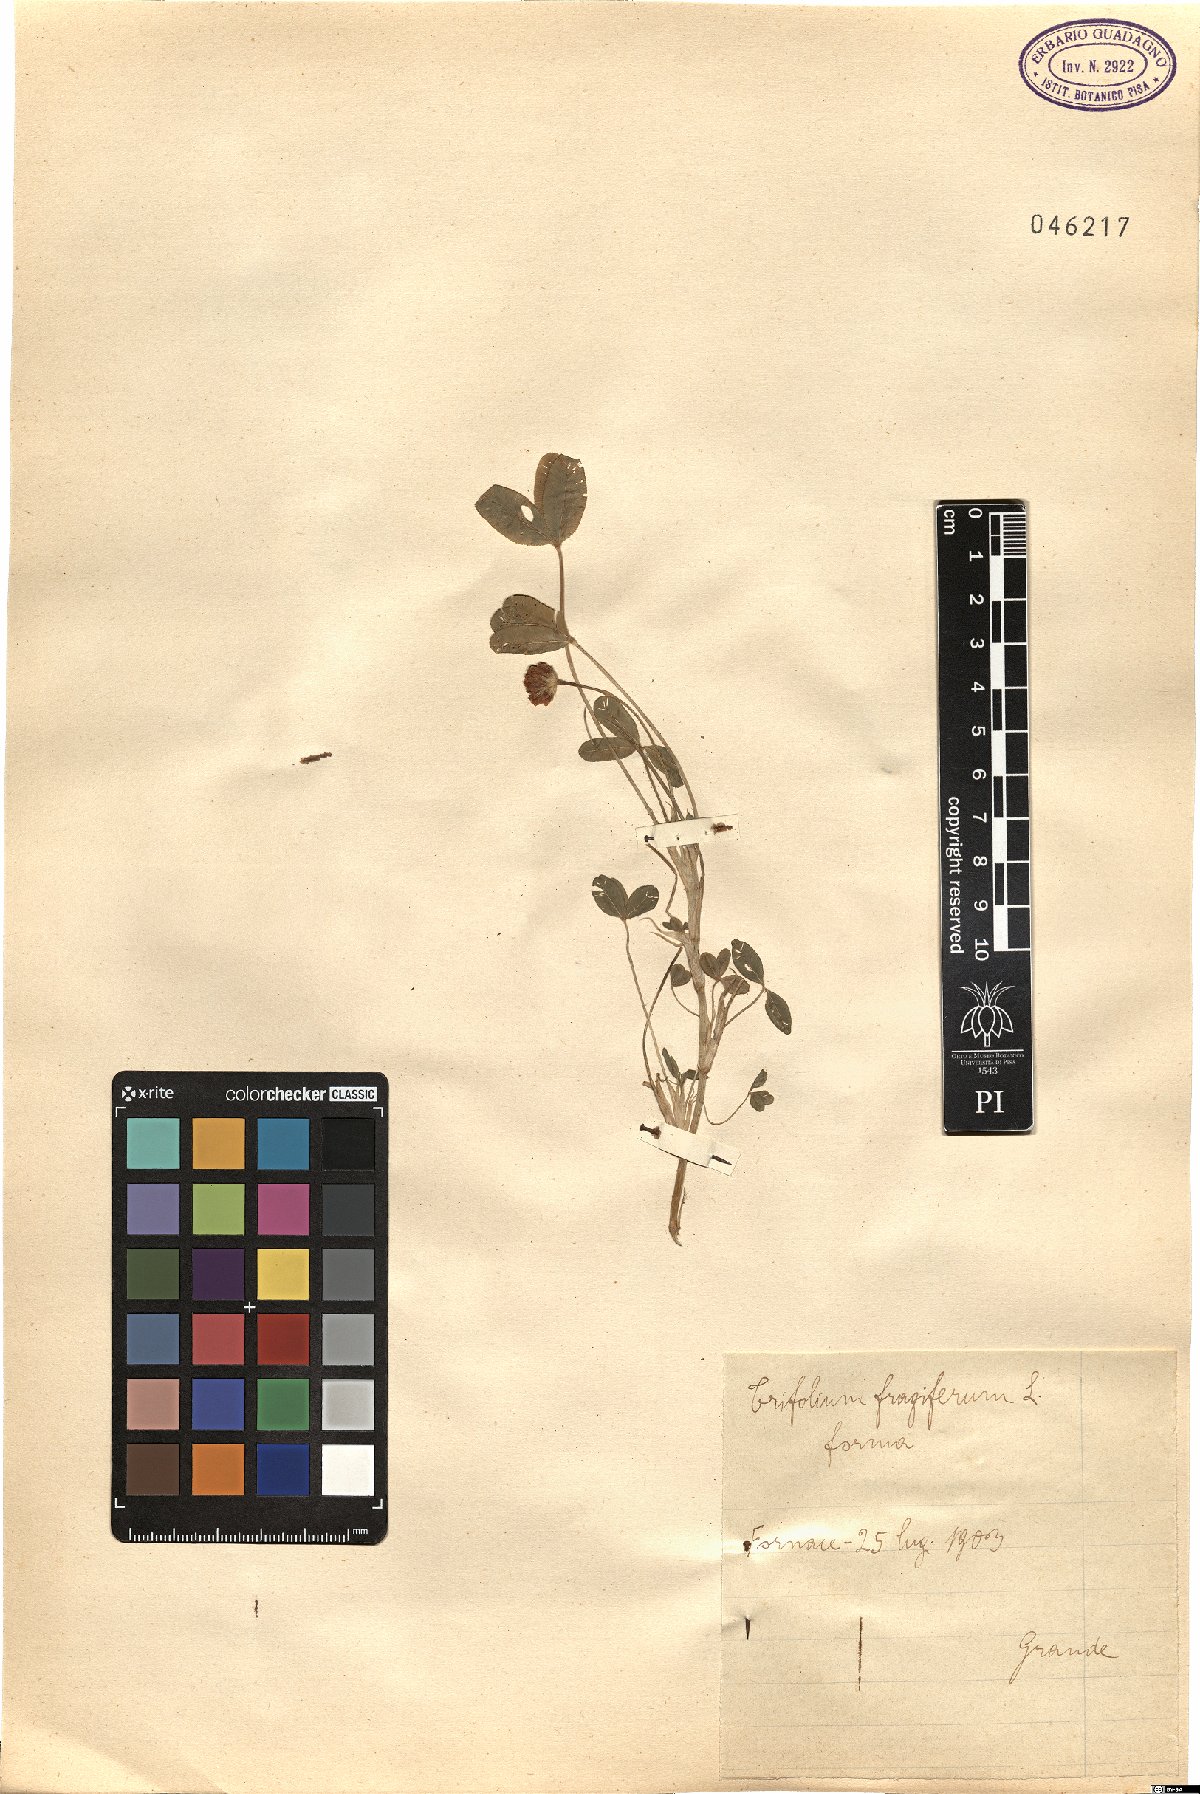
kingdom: Plantae
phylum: Tracheophyta
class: Magnoliopsida
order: Fabales
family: Fabaceae
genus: Trifolium
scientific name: Trifolium fragiferum
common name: Strawberry clover
